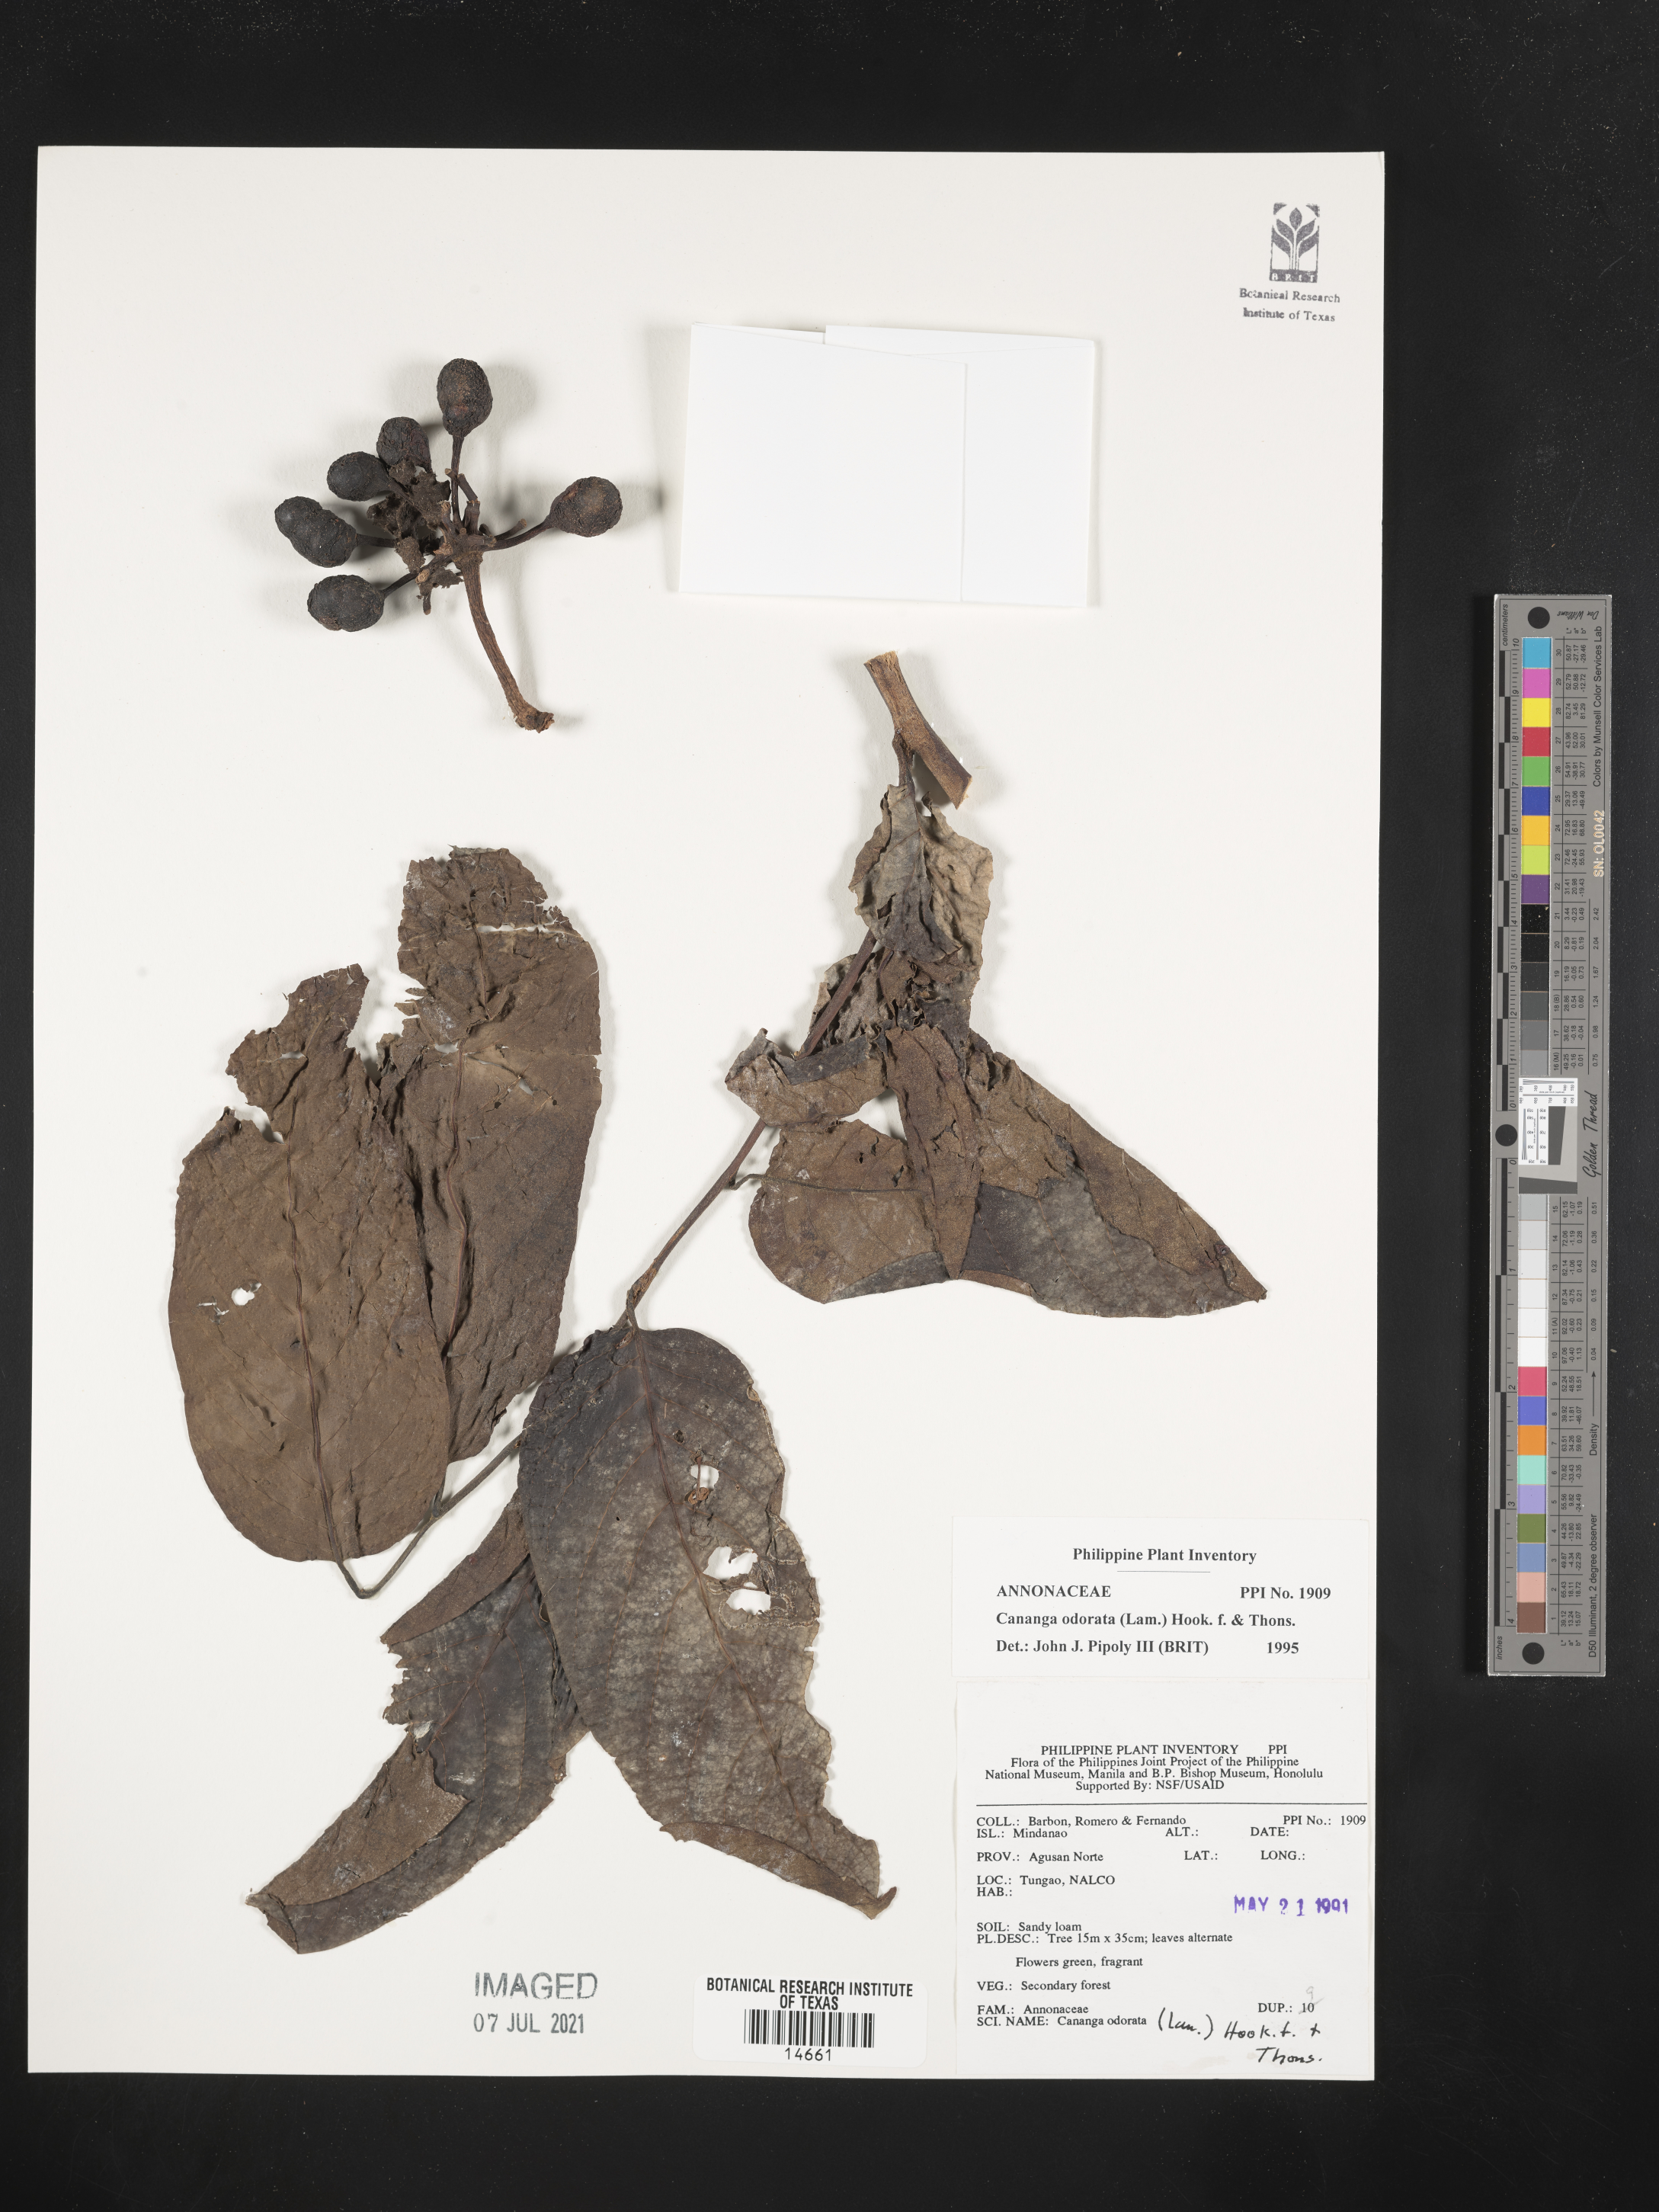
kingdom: Plantae
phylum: Tracheophyta
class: Magnoliopsida
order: Magnoliales
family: Annonaceae
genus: Cananga
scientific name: Cananga odorata
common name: Cananga tree
